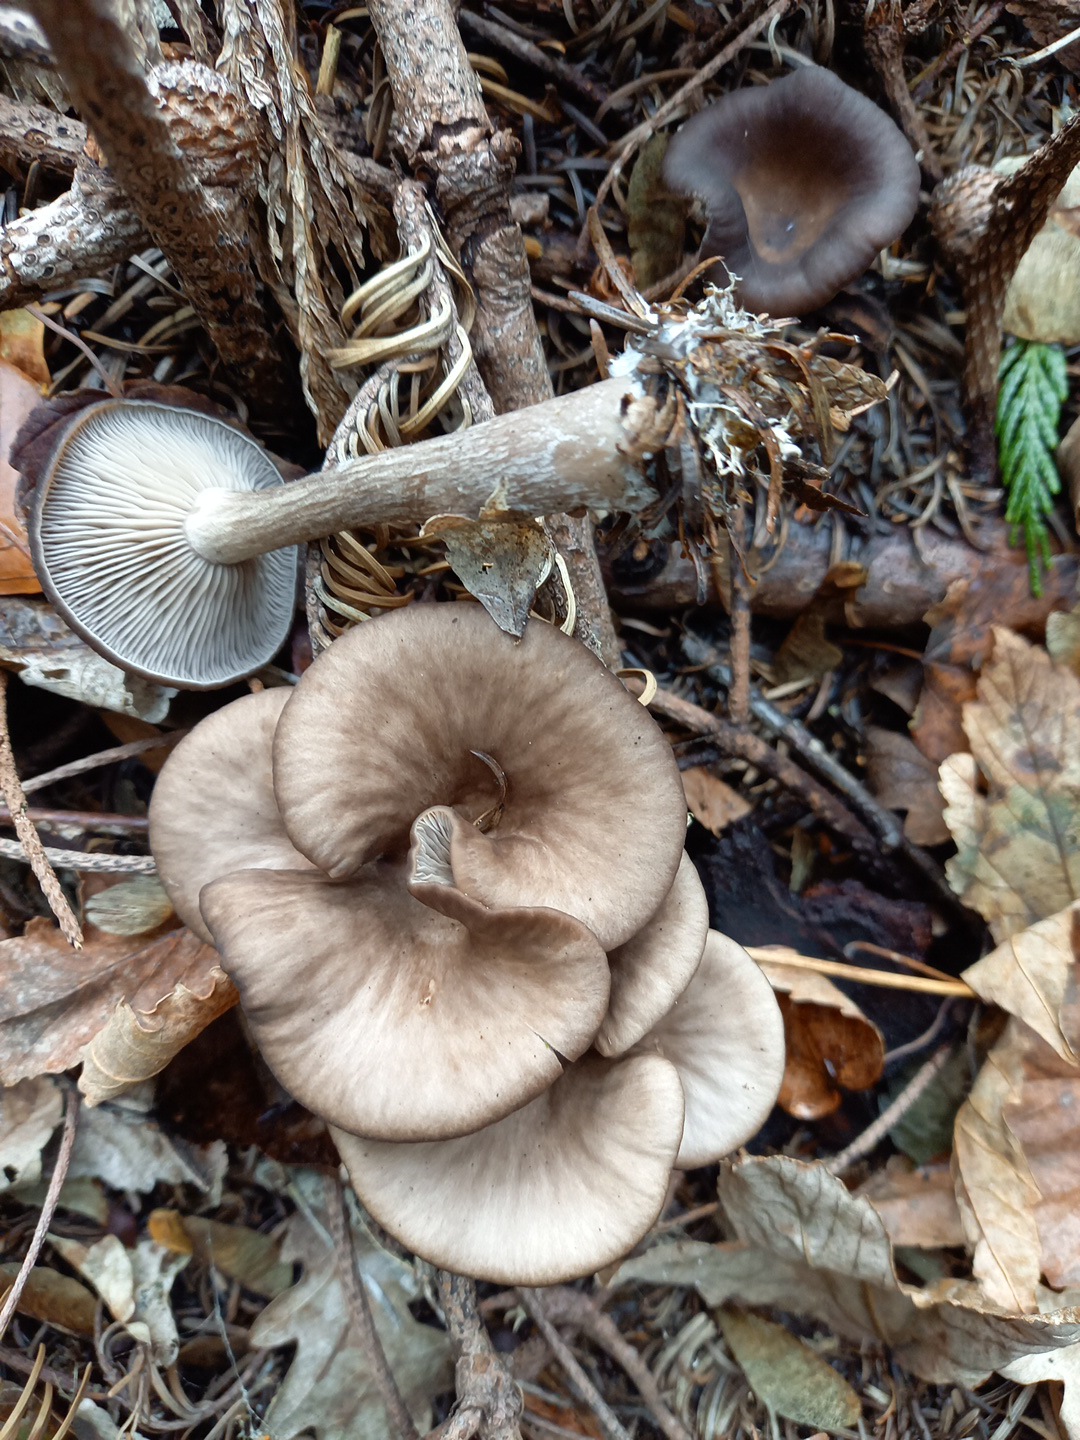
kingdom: Fungi
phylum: Basidiomycota
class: Agaricomycetes
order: Agaricales
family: Pseudoclitocybaceae
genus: Pseudoclitocybe
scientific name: Pseudoclitocybe cyathiformis
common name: almindelig bægertragthat
